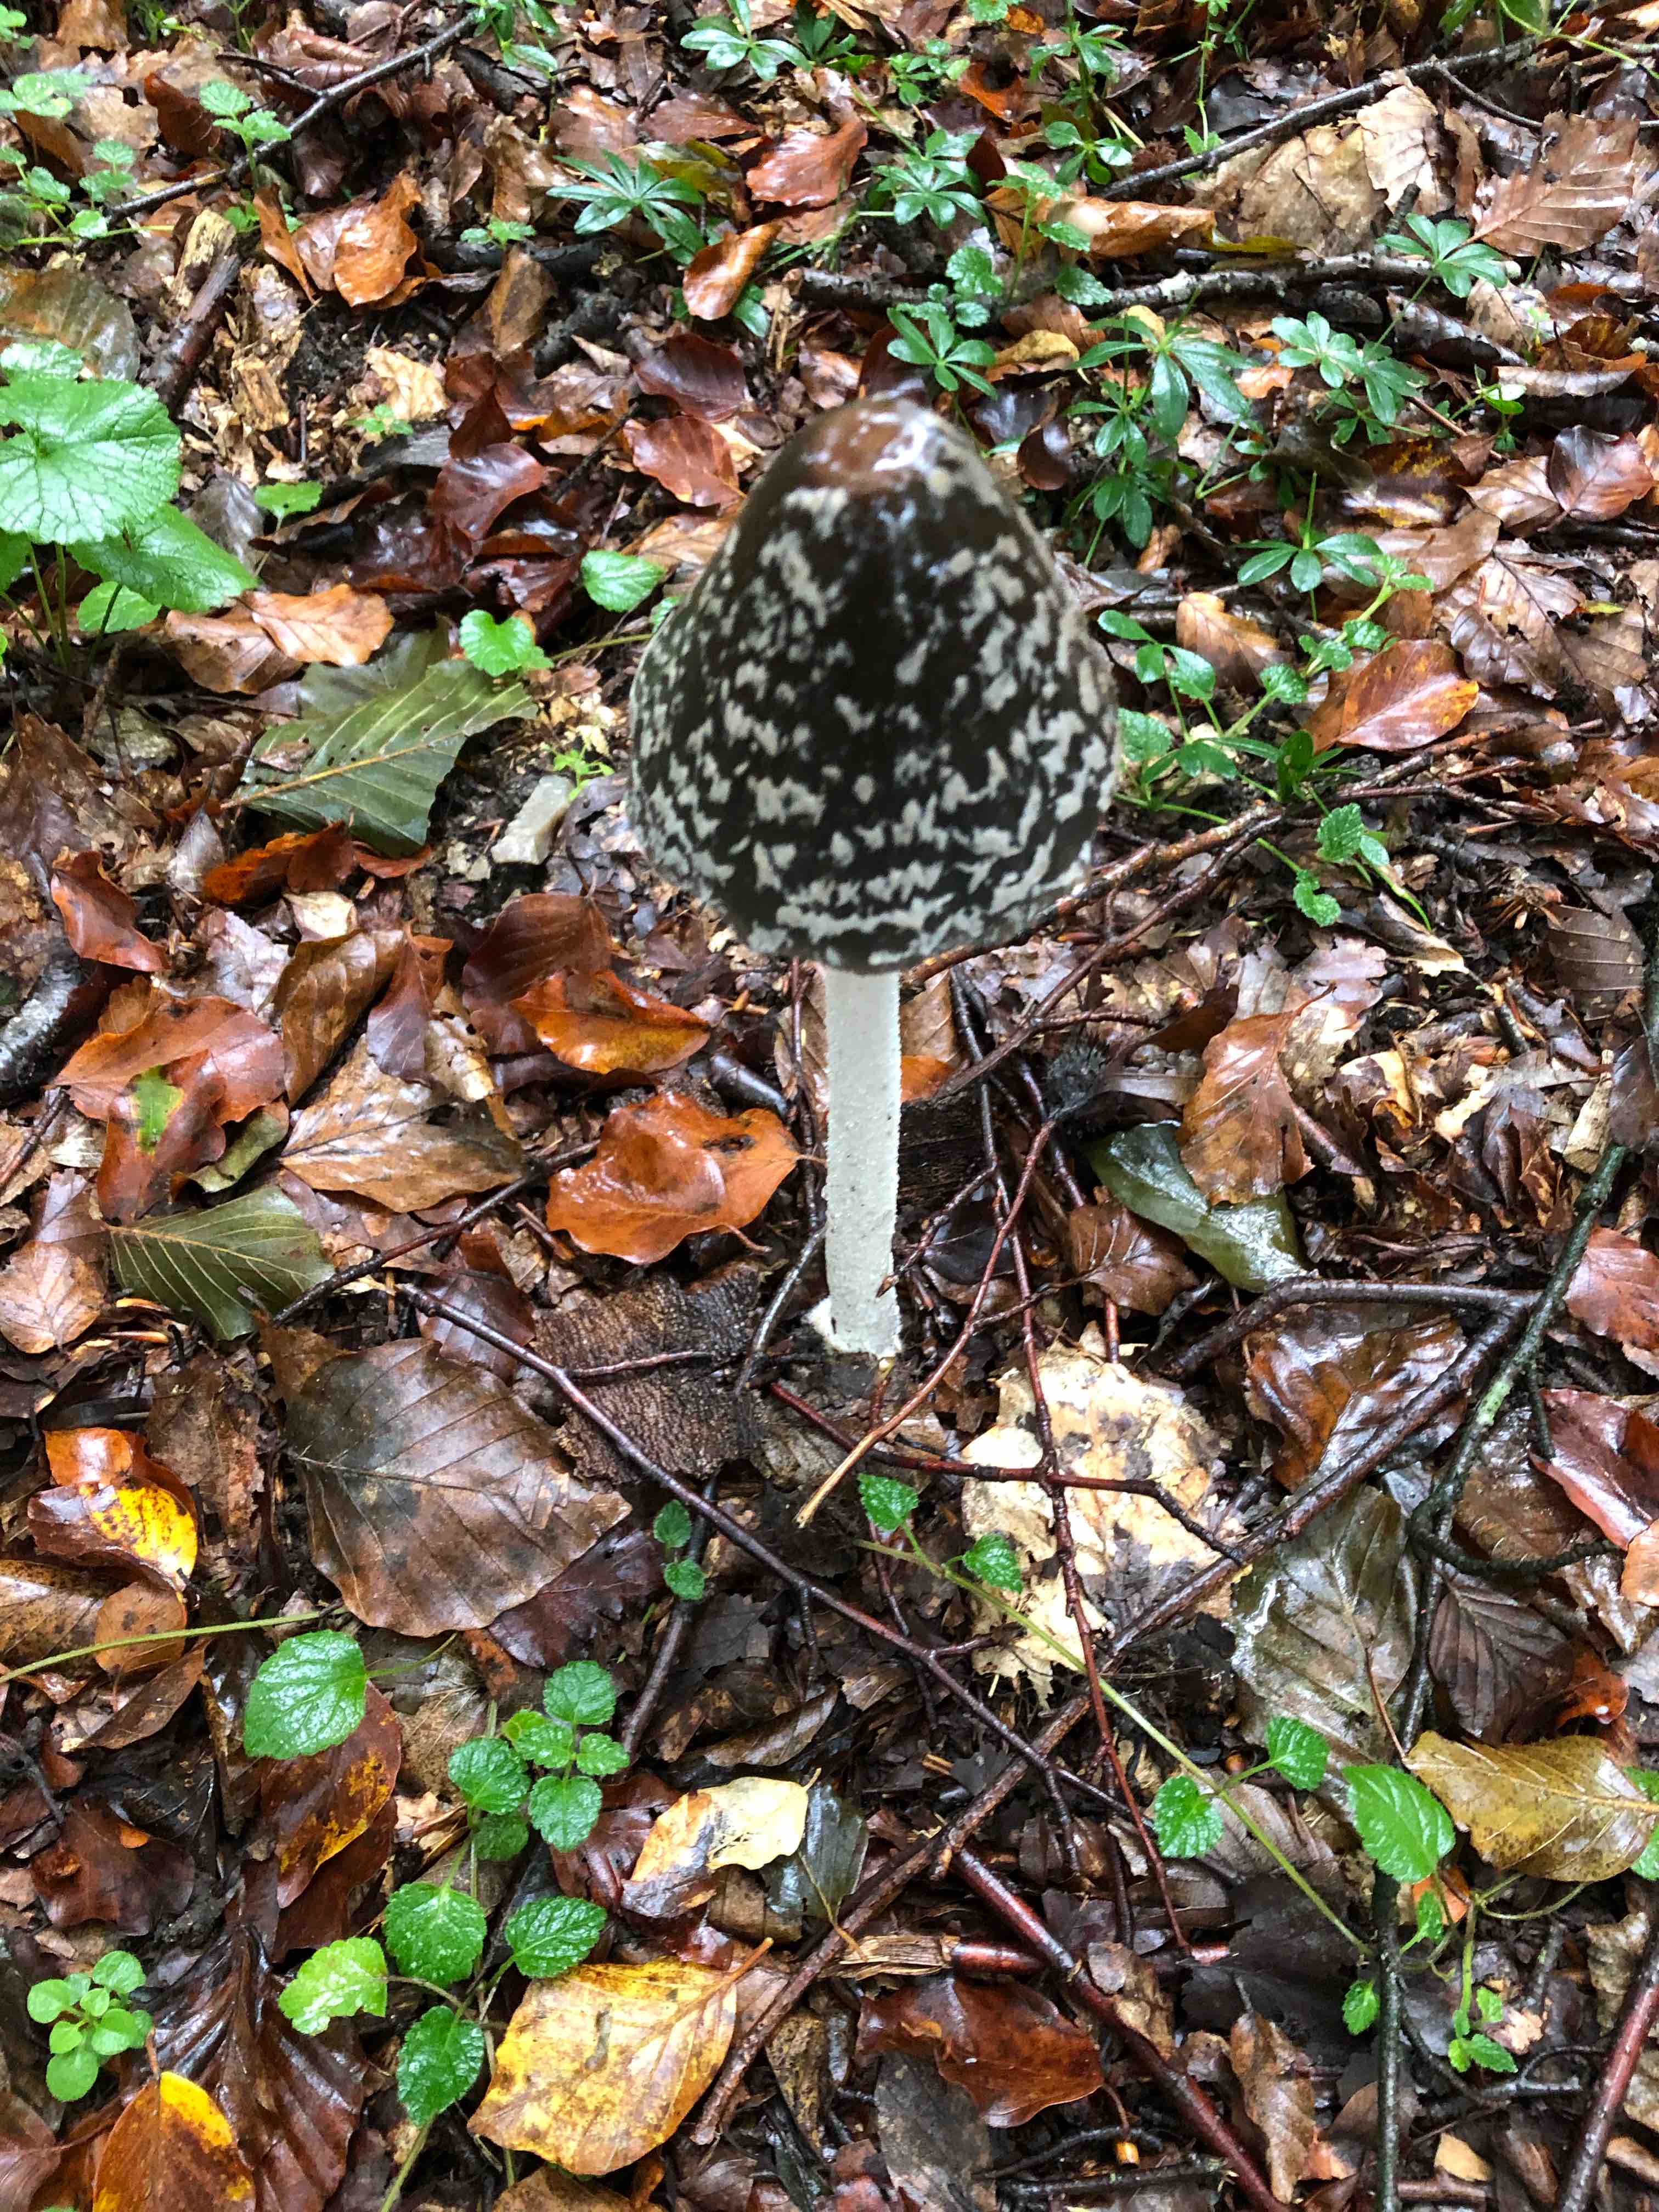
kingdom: Fungi
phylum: Basidiomycota
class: Agaricomycetes
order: Agaricales
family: Psathyrellaceae
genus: Coprinopsis
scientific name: Coprinopsis picacea
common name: skade-blækhat
